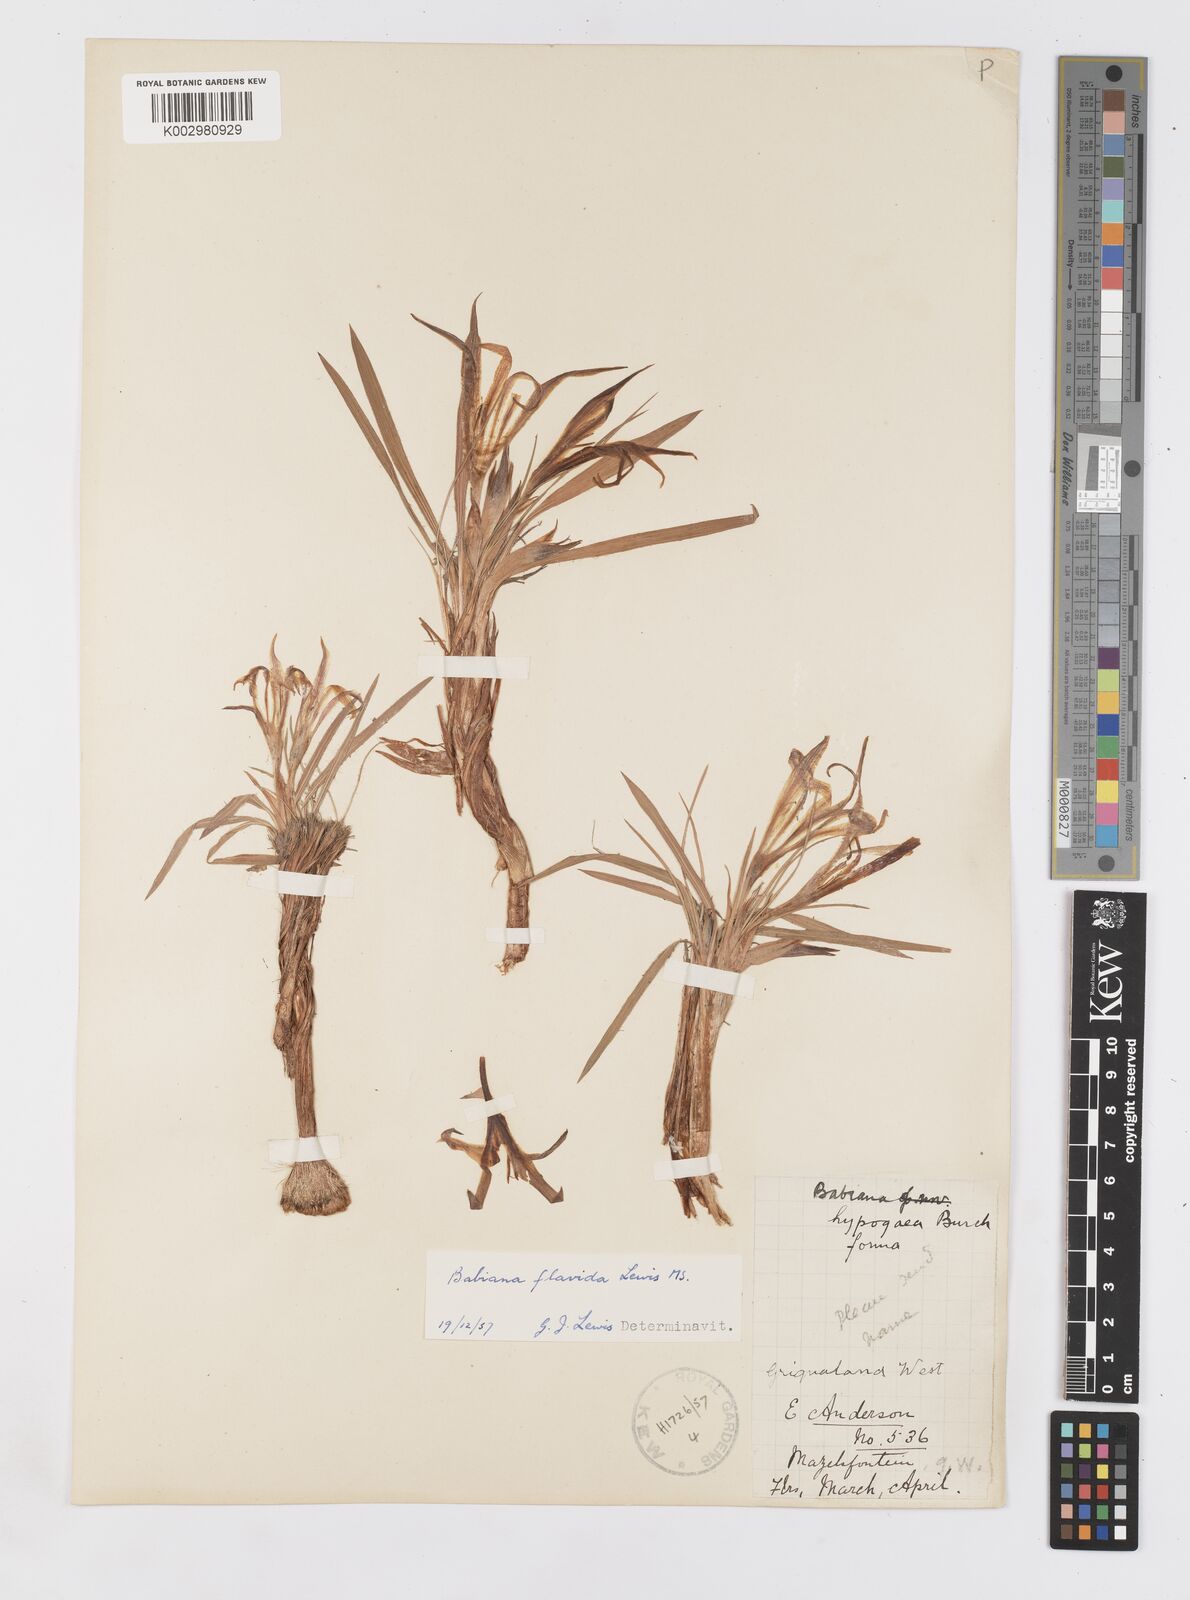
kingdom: Plantae
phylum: Tracheophyta
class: Liliopsida
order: Asparagales
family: Iridaceae
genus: Babiana
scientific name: Babiana hypogaea
